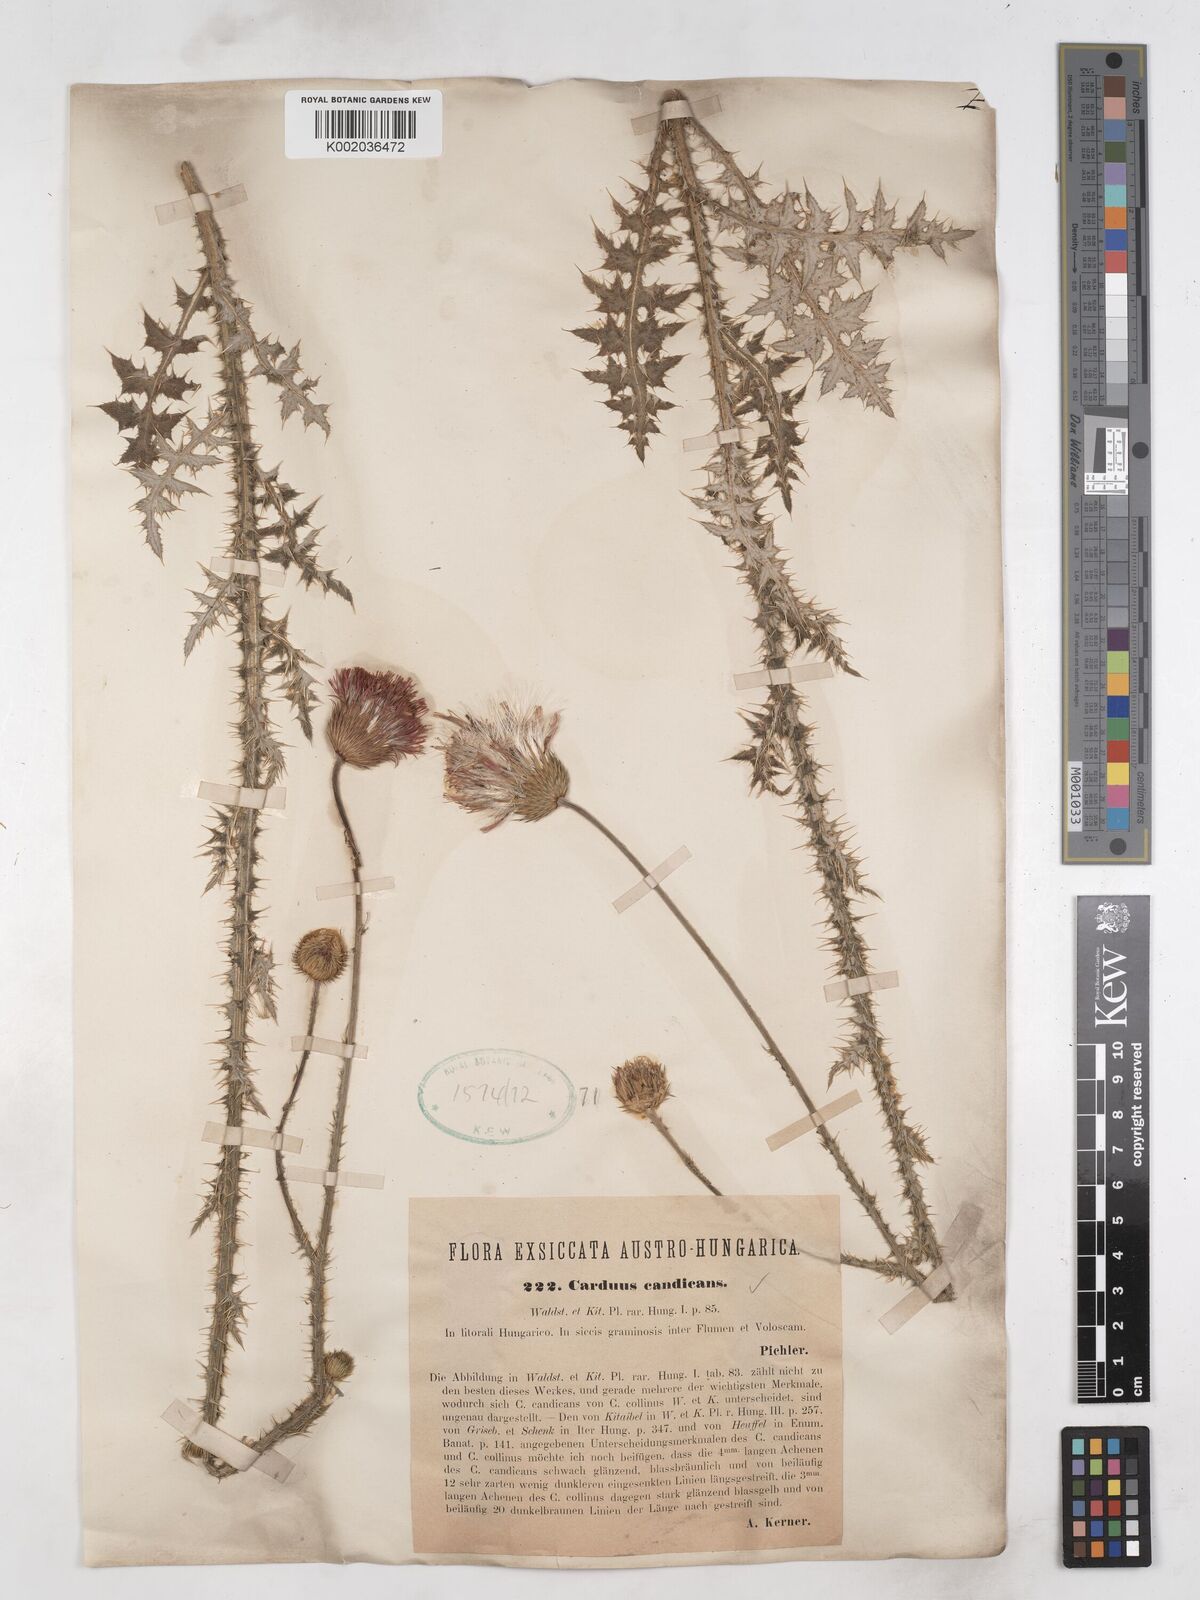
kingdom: Plantae
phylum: Tracheophyta
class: Magnoliopsida
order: Asterales
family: Asteraceae
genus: Carduus
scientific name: Carduus candicans
